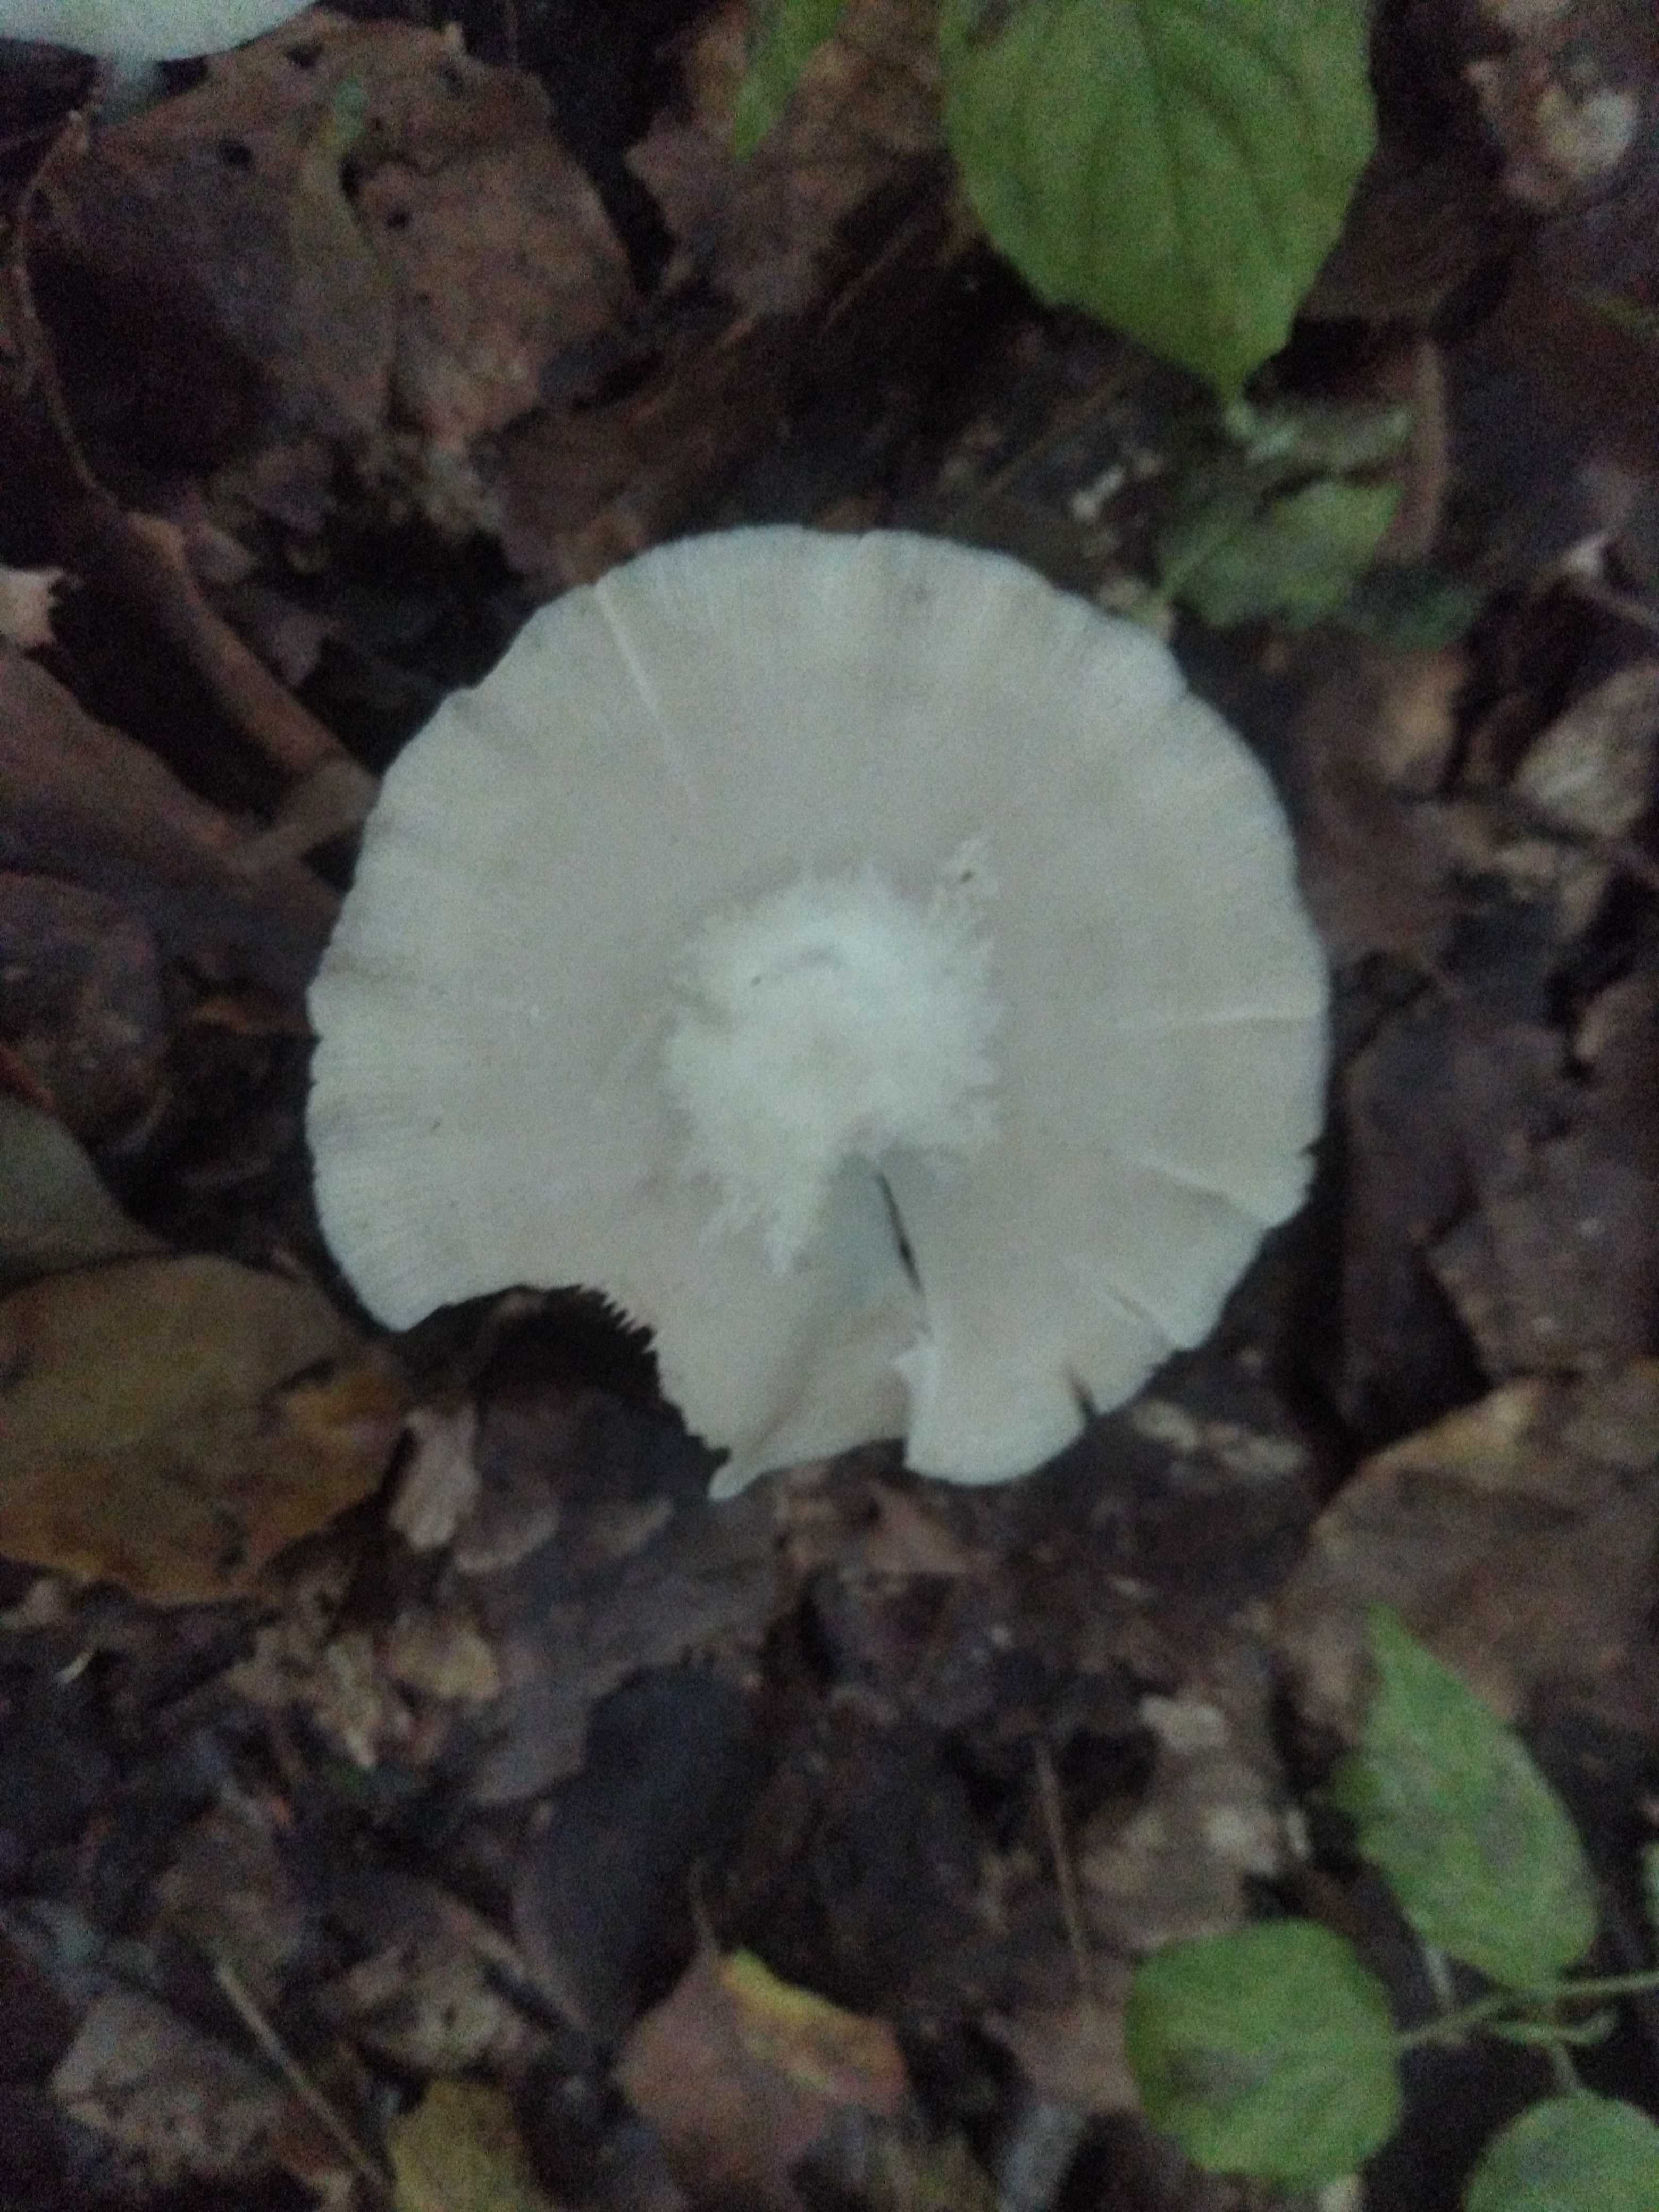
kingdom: Fungi
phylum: Basidiomycota
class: Agaricomycetes
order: Agaricales
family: Entolomataceae
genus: Entoloma
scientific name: Entoloma
